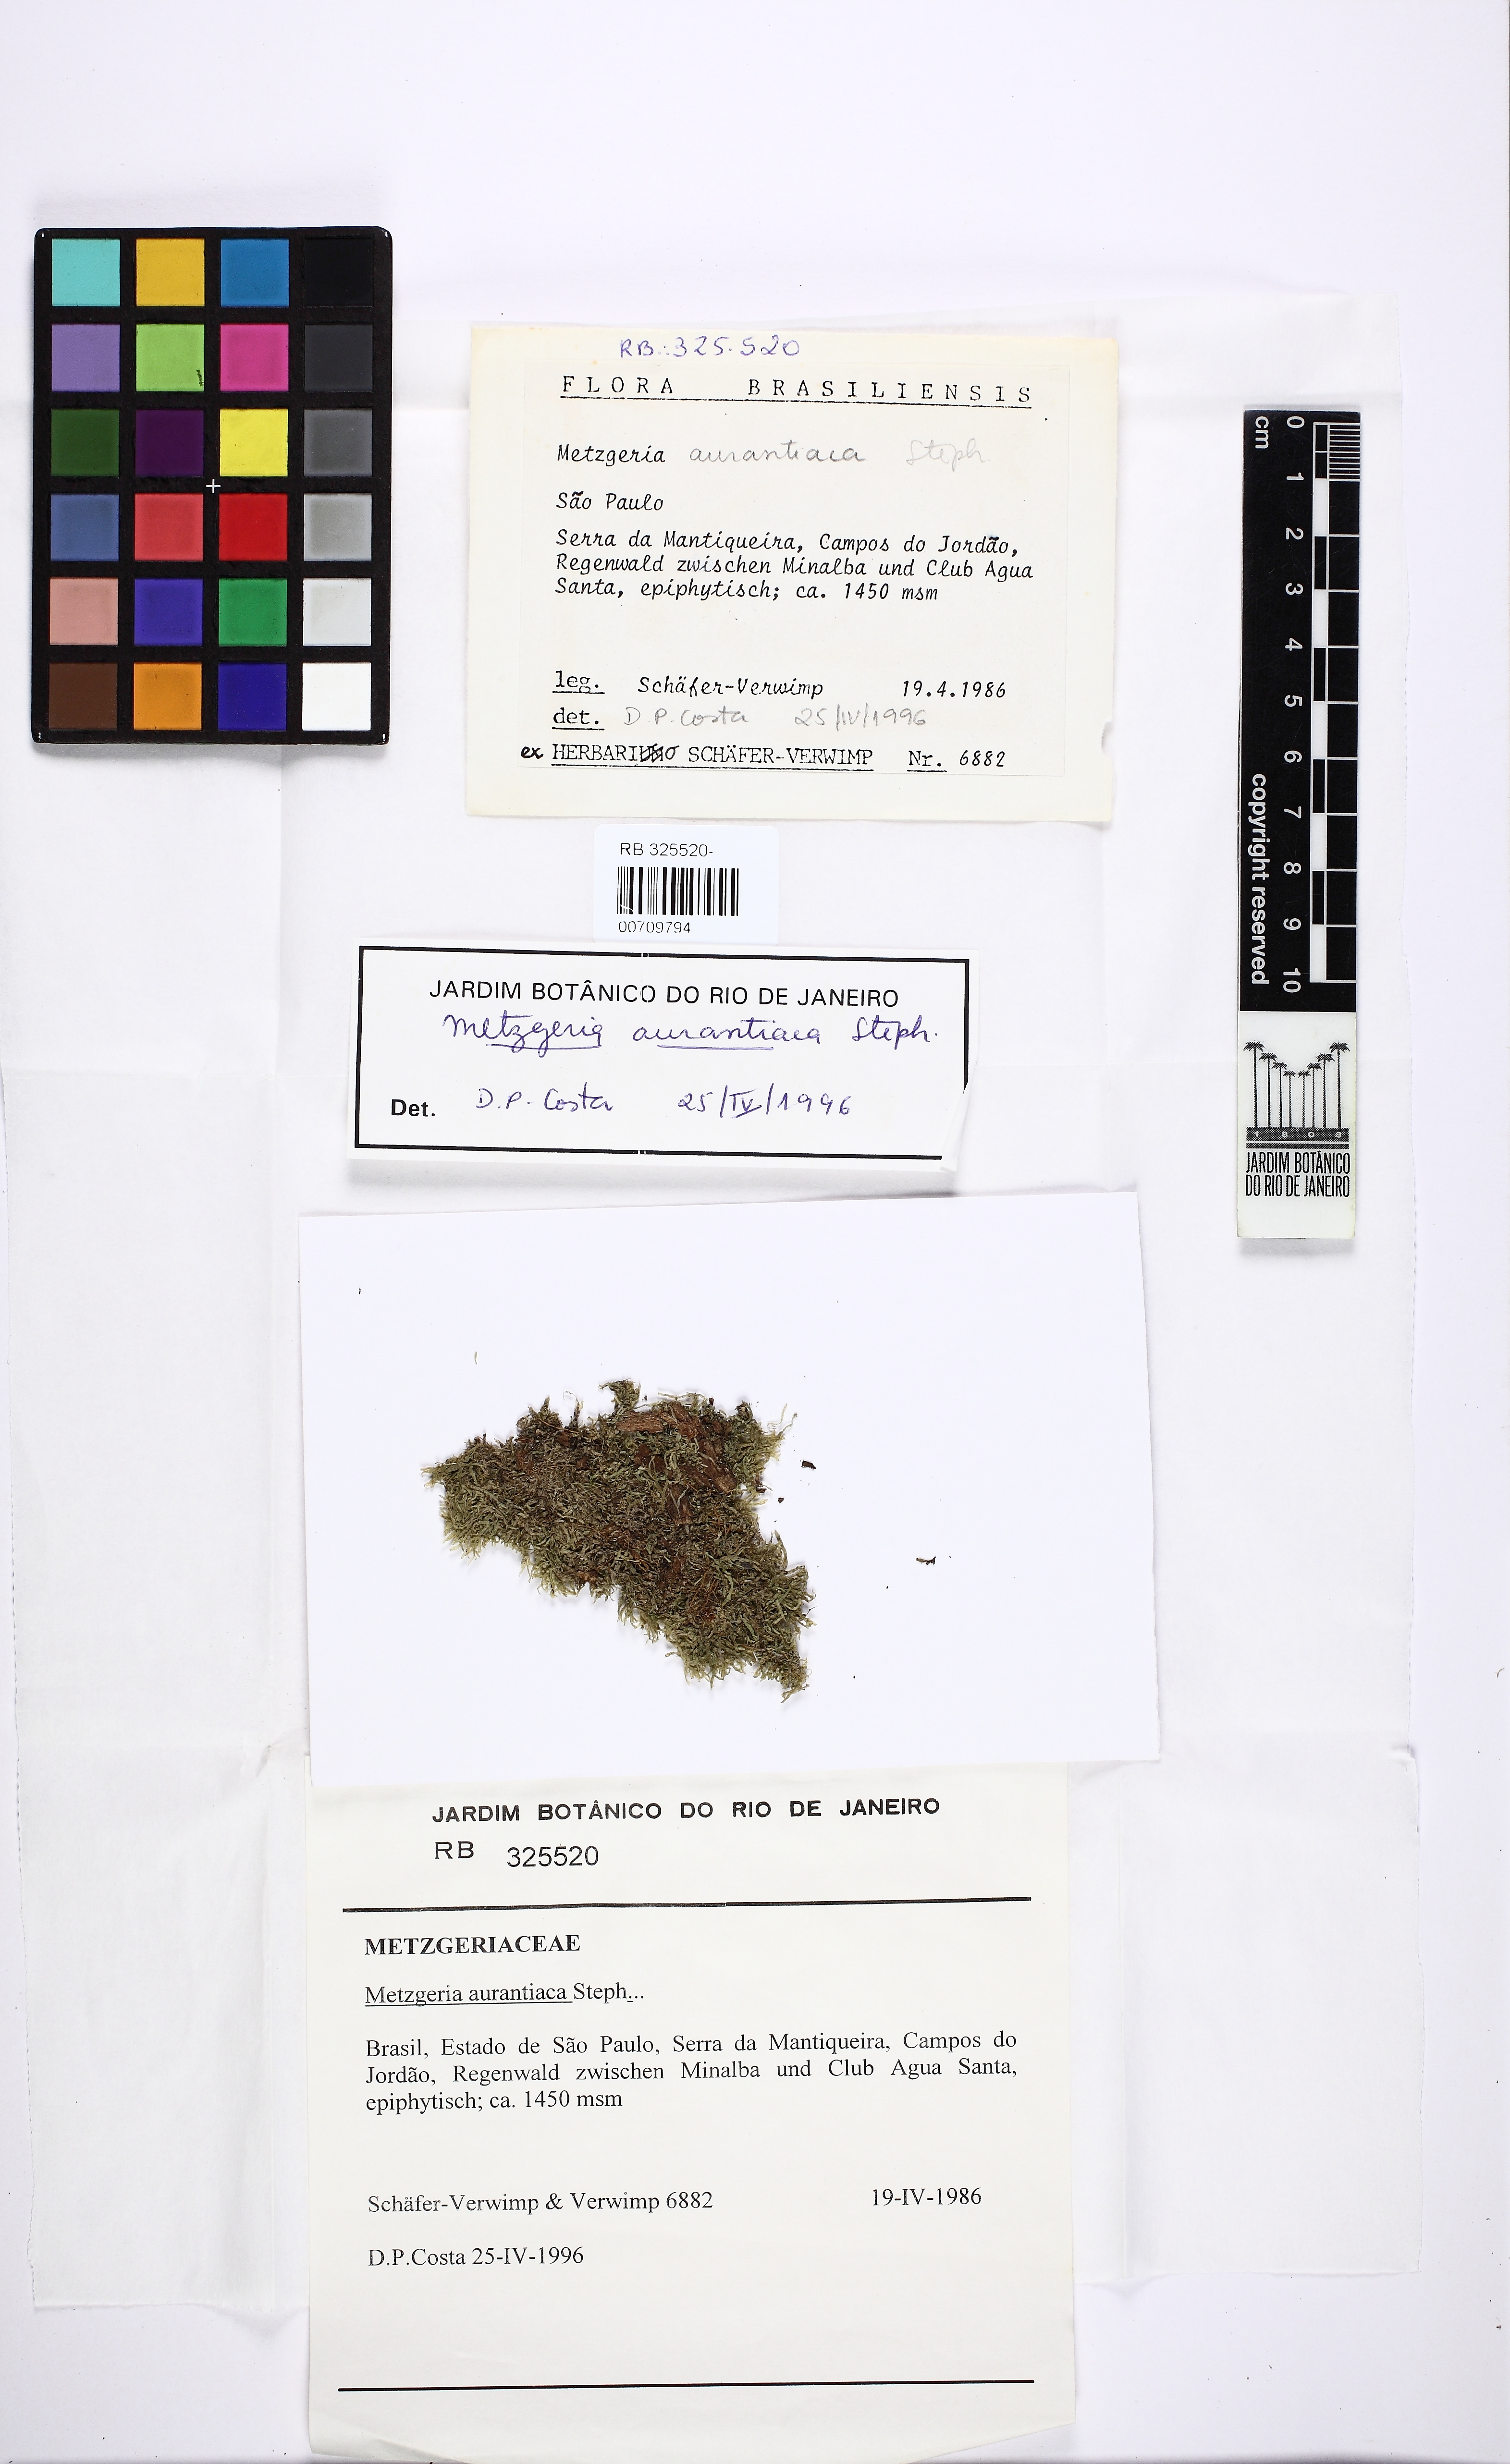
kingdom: Plantae
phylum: Marchantiophyta
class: Jungermanniopsida
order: Metzgeriales
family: Metzgeriaceae
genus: Metzgeria
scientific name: Metzgeria aurantiaca
